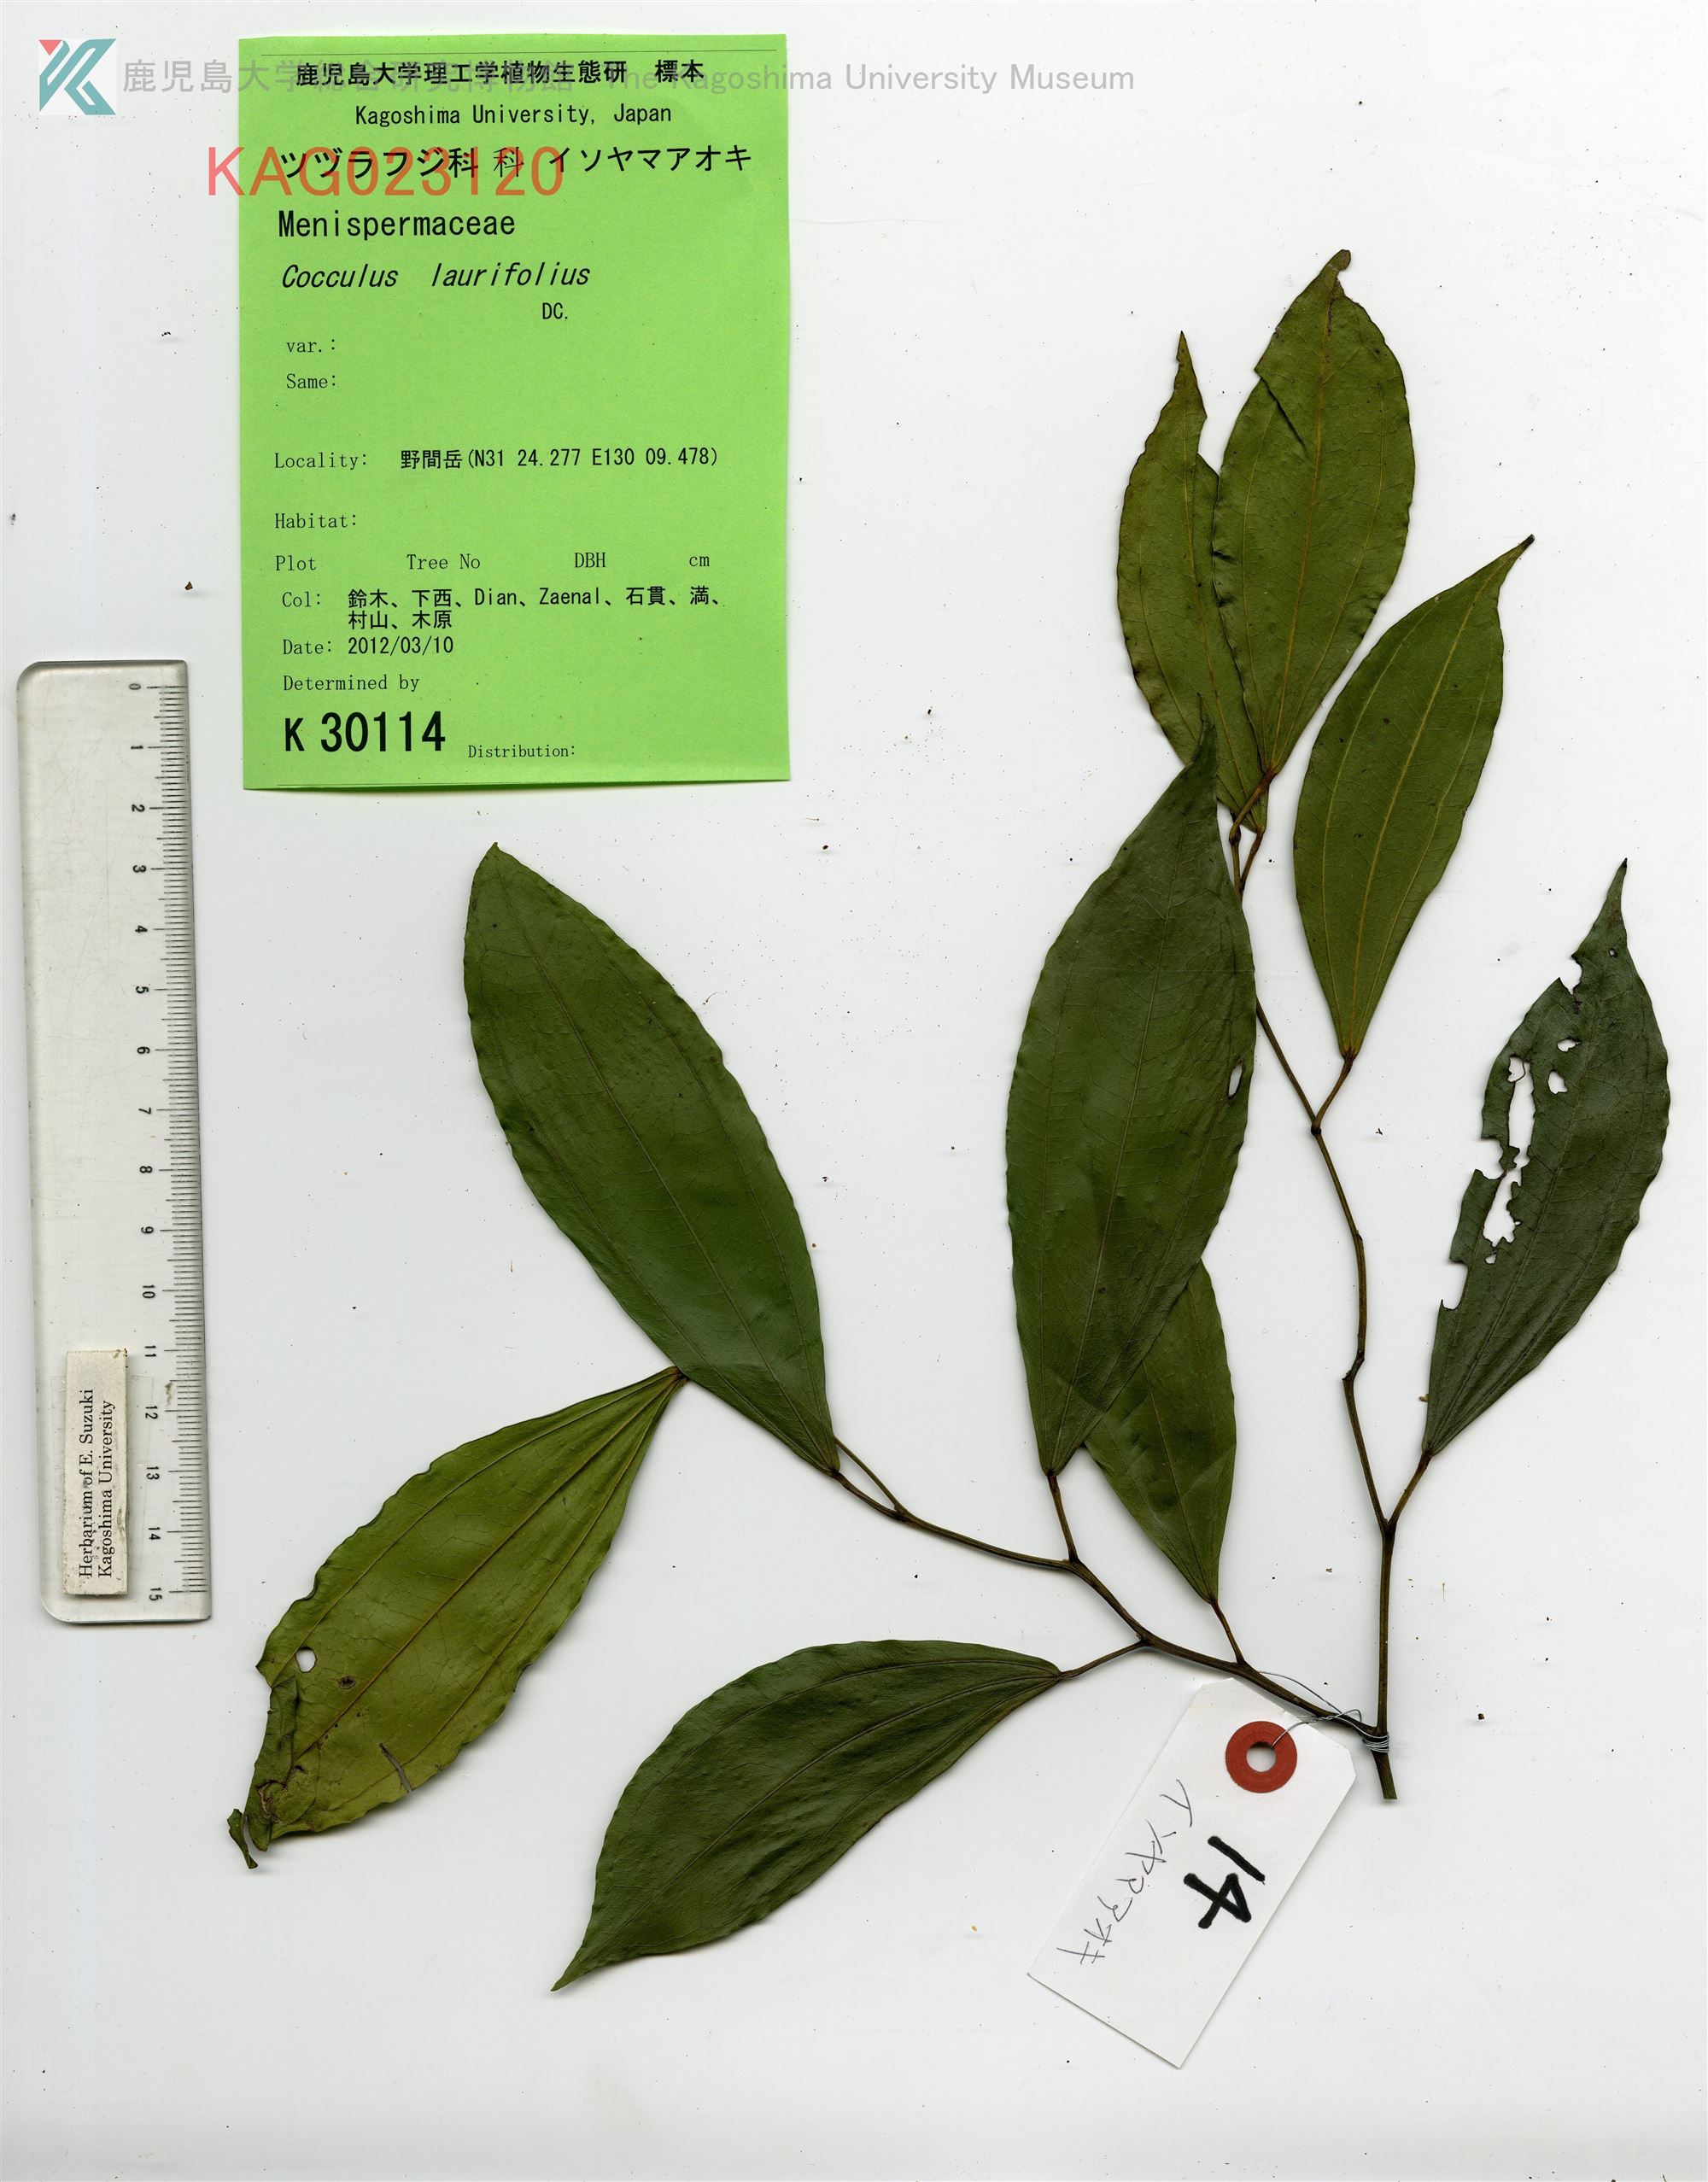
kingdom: Plantae
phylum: Tracheophyta
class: Magnoliopsida
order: Ranunculales
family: Menispermaceae
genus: Cocculus
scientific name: Cocculus laurifolius
